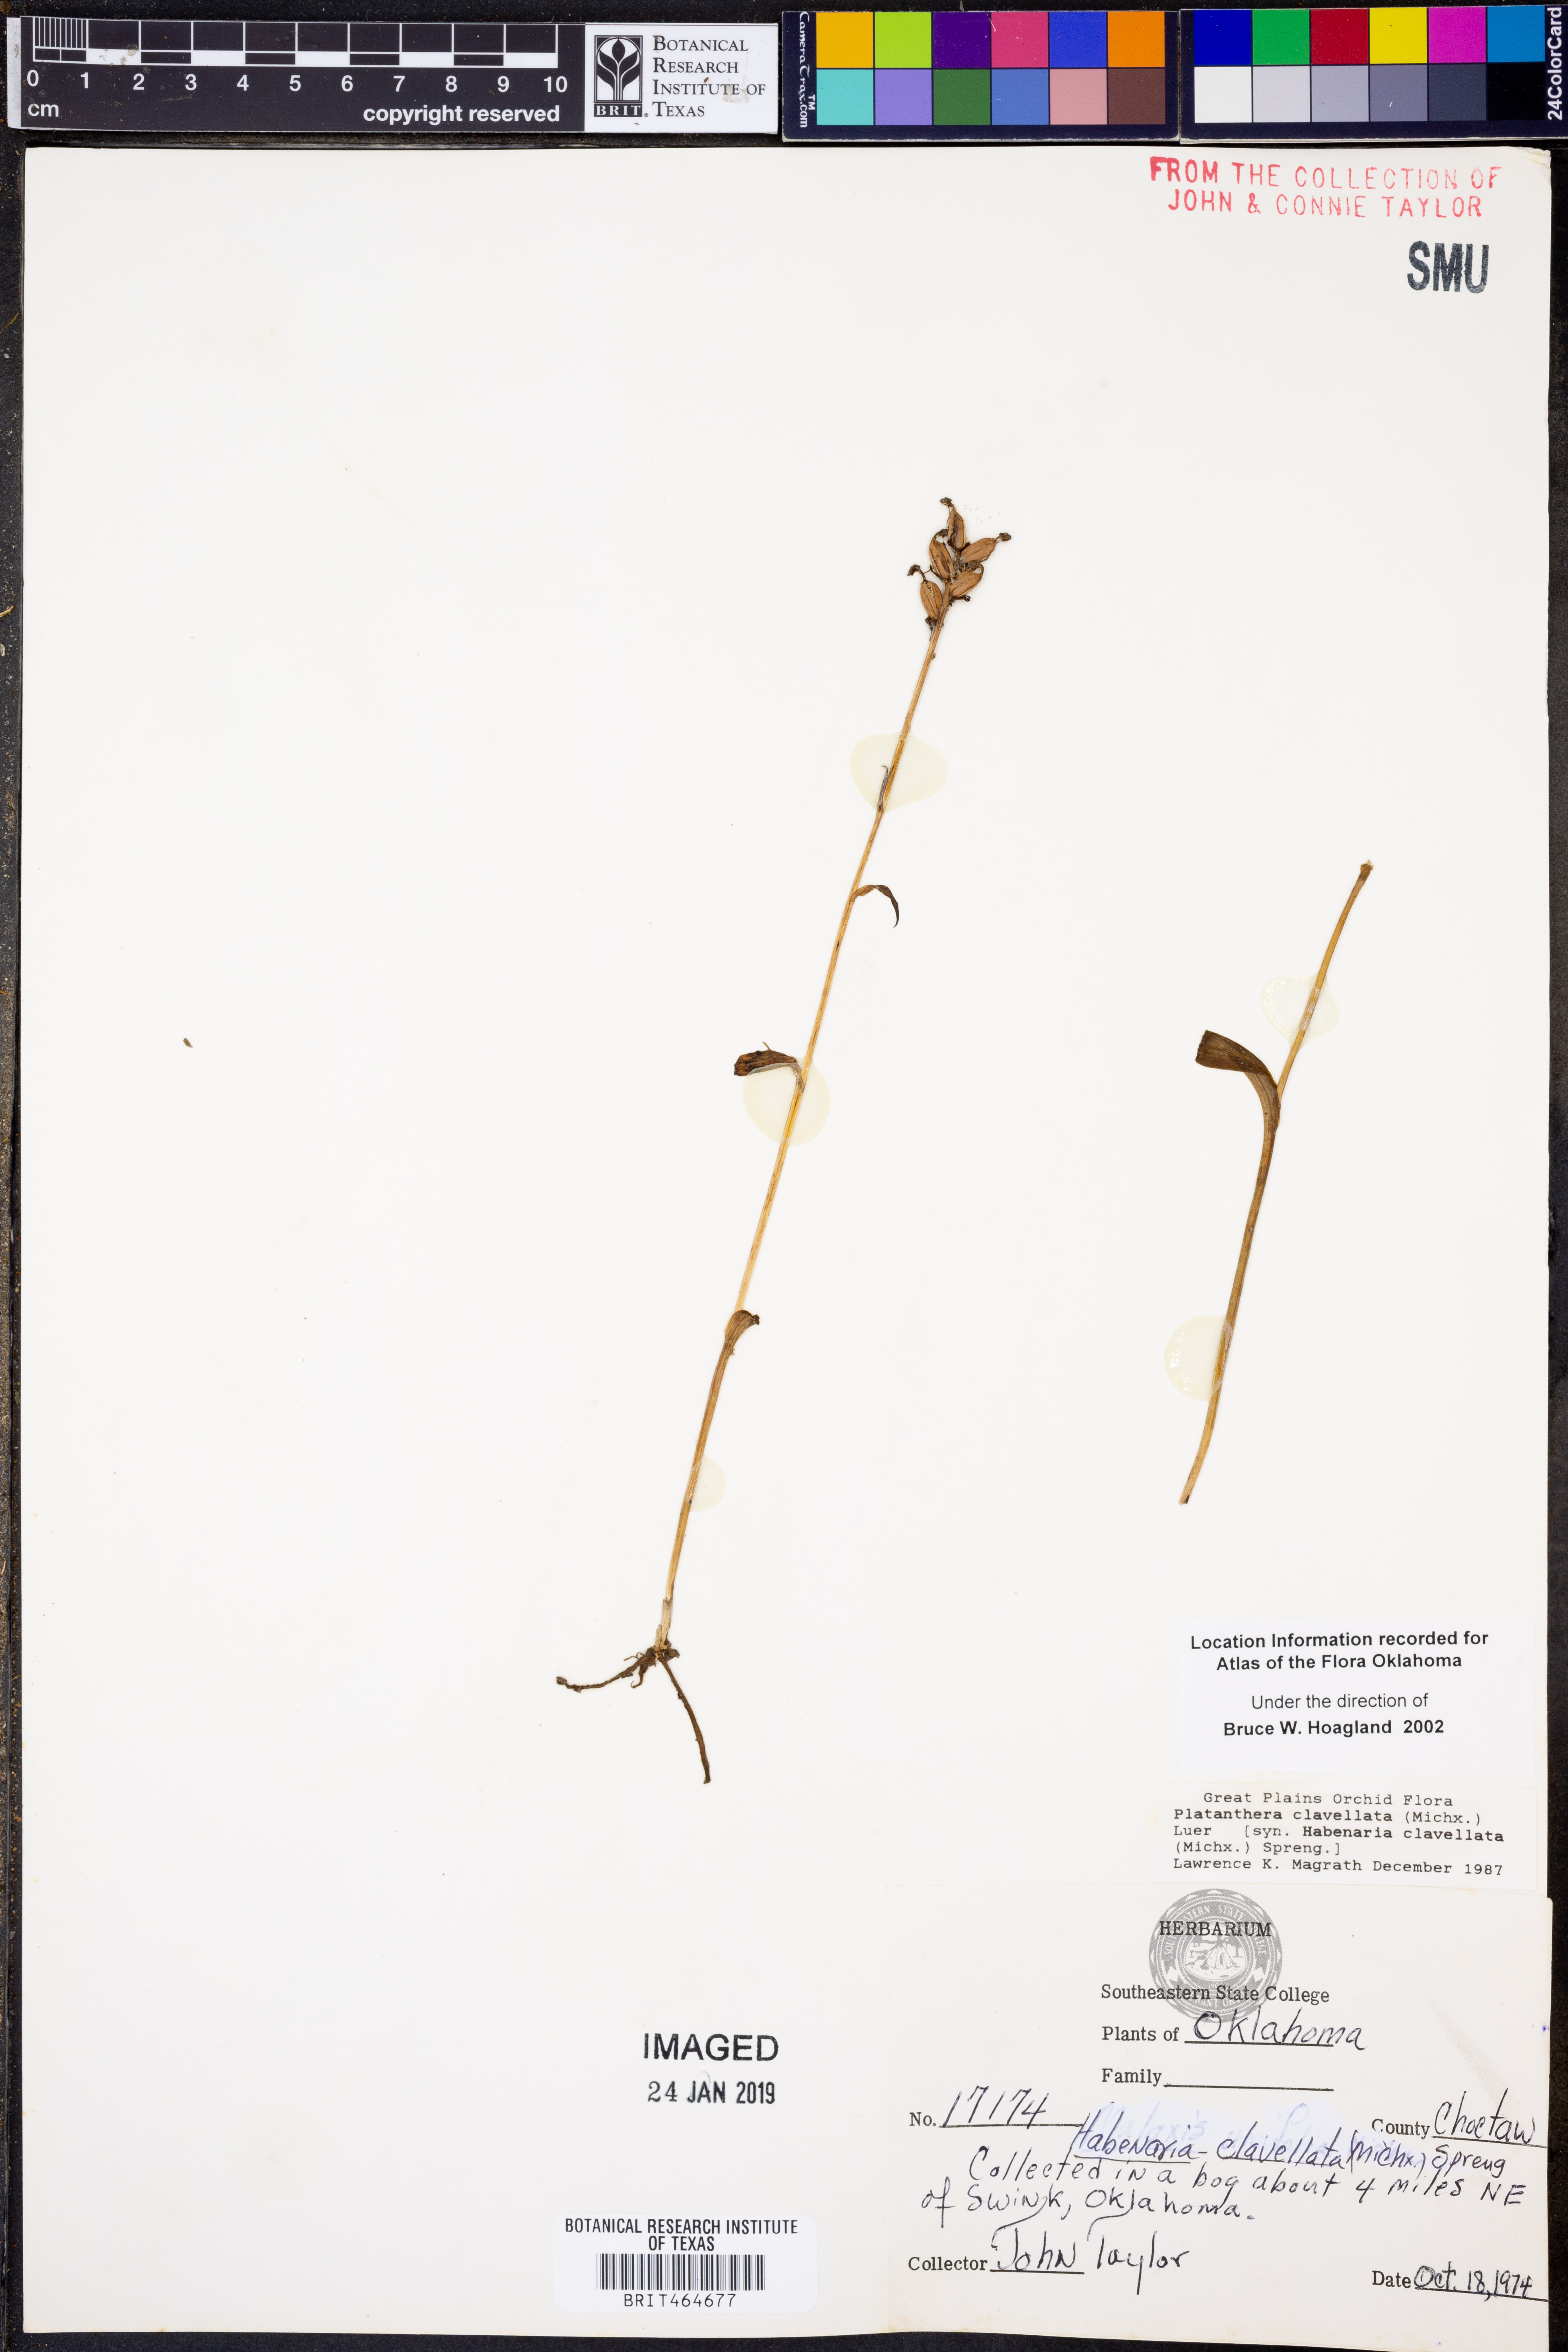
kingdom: Plantae
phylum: Tracheophyta
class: Liliopsida
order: Asparagales
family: Orchidaceae
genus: Platanthera
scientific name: Platanthera clavellata
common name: Club-spur orchid
